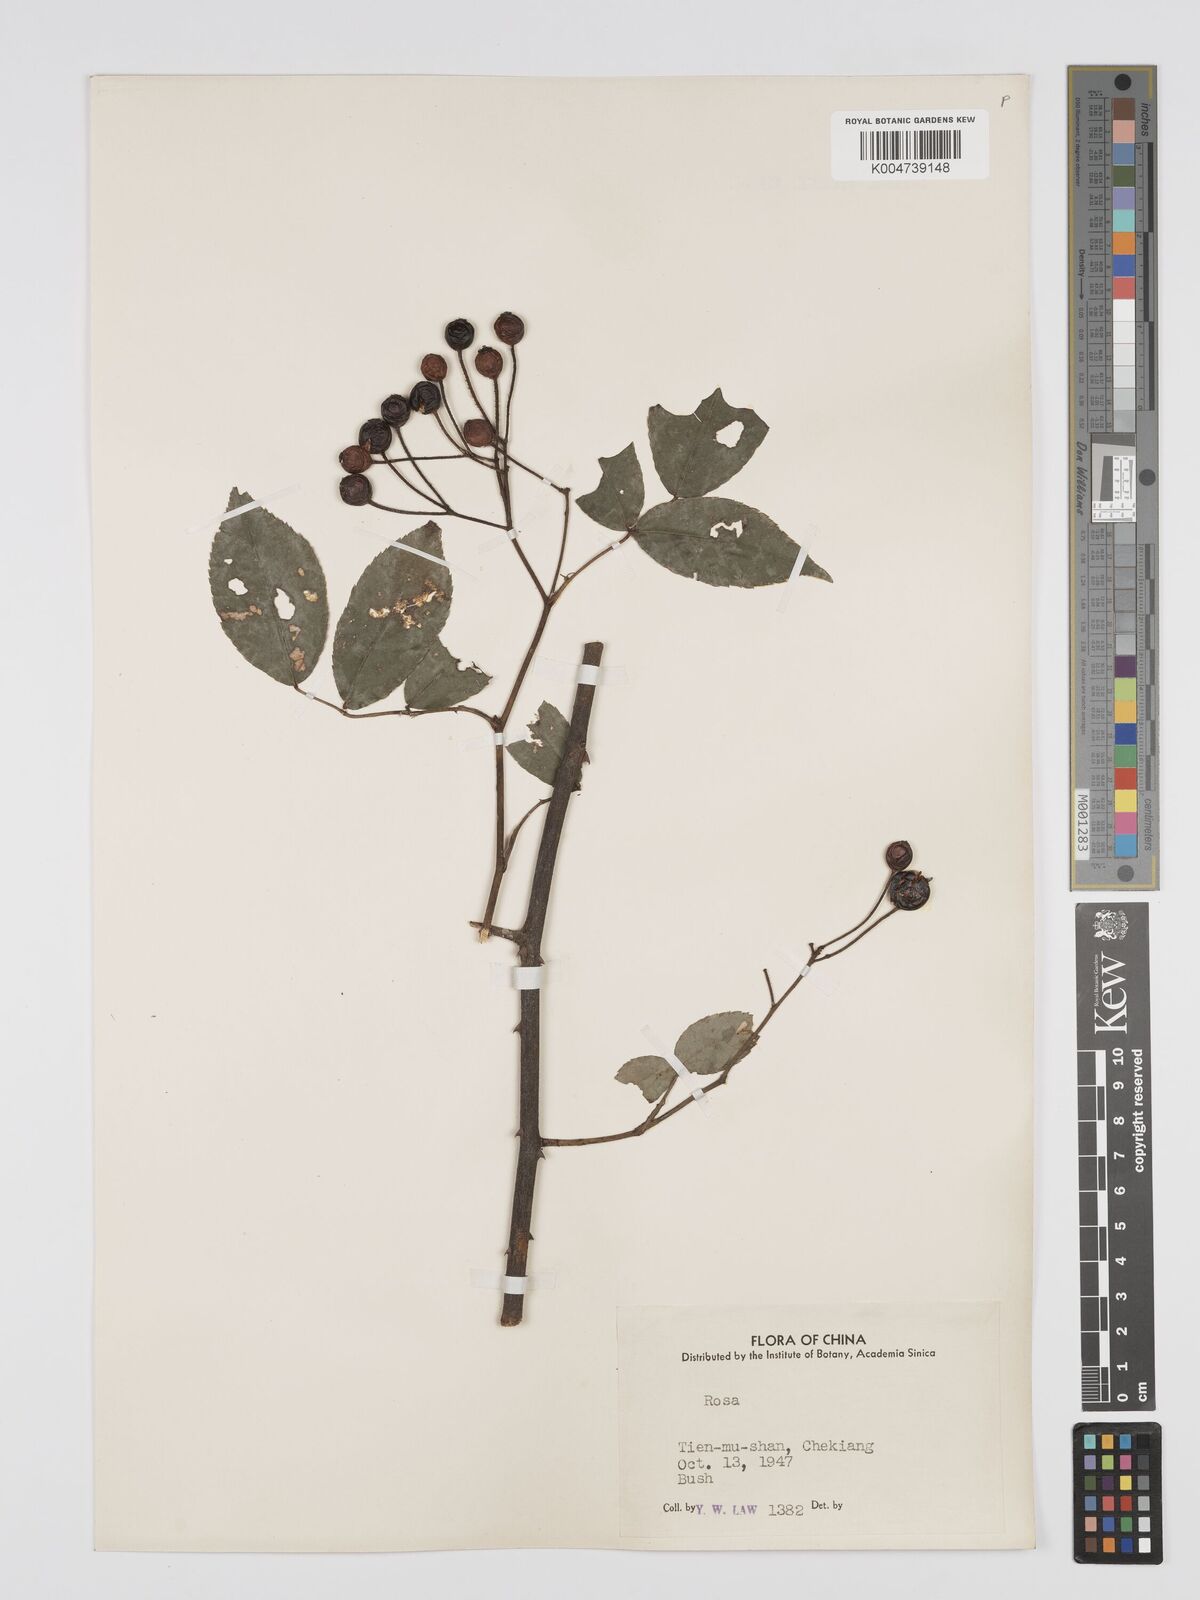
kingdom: Plantae
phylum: Tracheophyta
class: Magnoliopsida
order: Rosales
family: Rosaceae
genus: Rosa
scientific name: Rosa henryi
